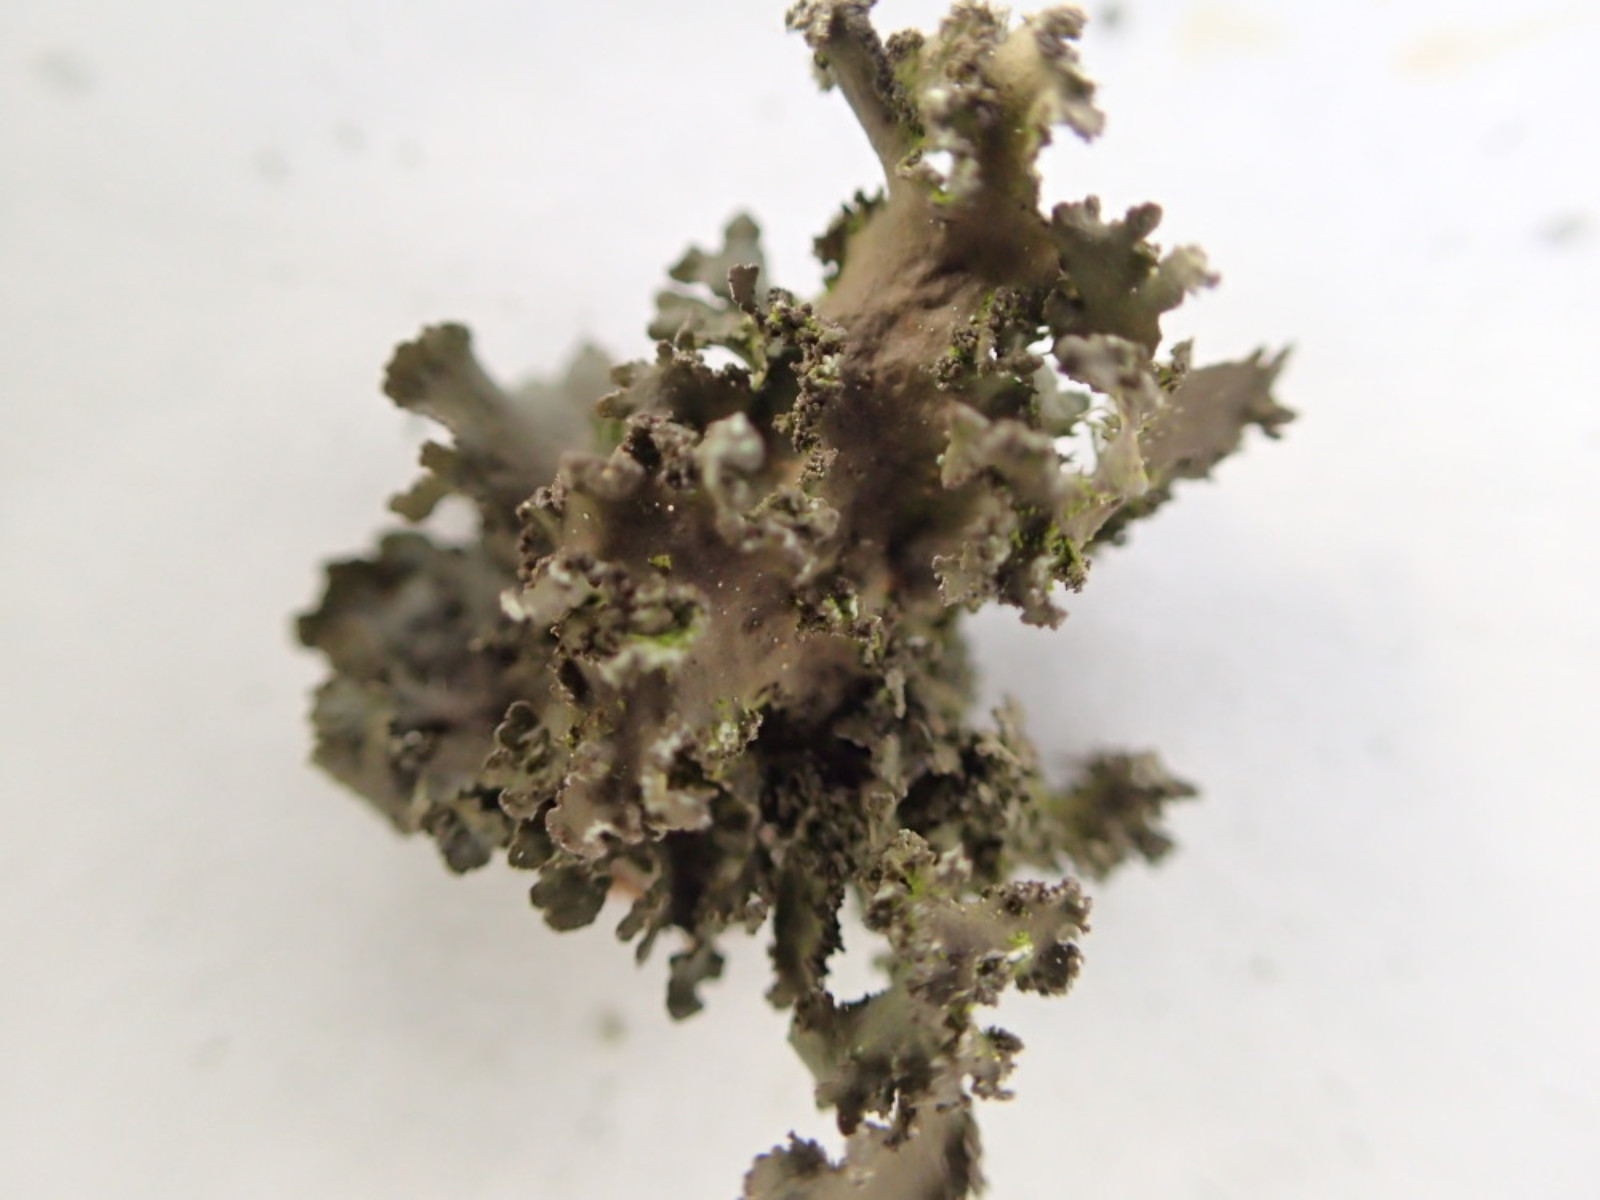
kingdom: Fungi
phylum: Ascomycota
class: Lecanoromycetes
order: Lecanorales
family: Parmeliaceae
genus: Nephromopsis
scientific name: Nephromopsis chlorophylla
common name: olivenbrun kruslav
